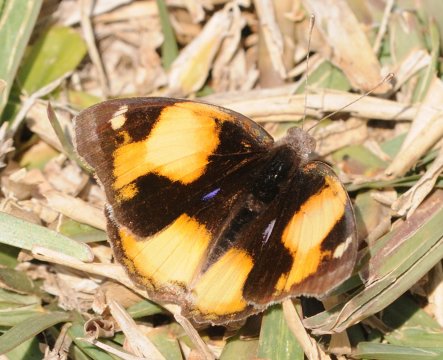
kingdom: Animalia
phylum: Arthropoda
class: Insecta
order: Lepidoptera
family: Nymphalidae
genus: Junonia
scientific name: Junonia hierta
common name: Yellow Pansy
